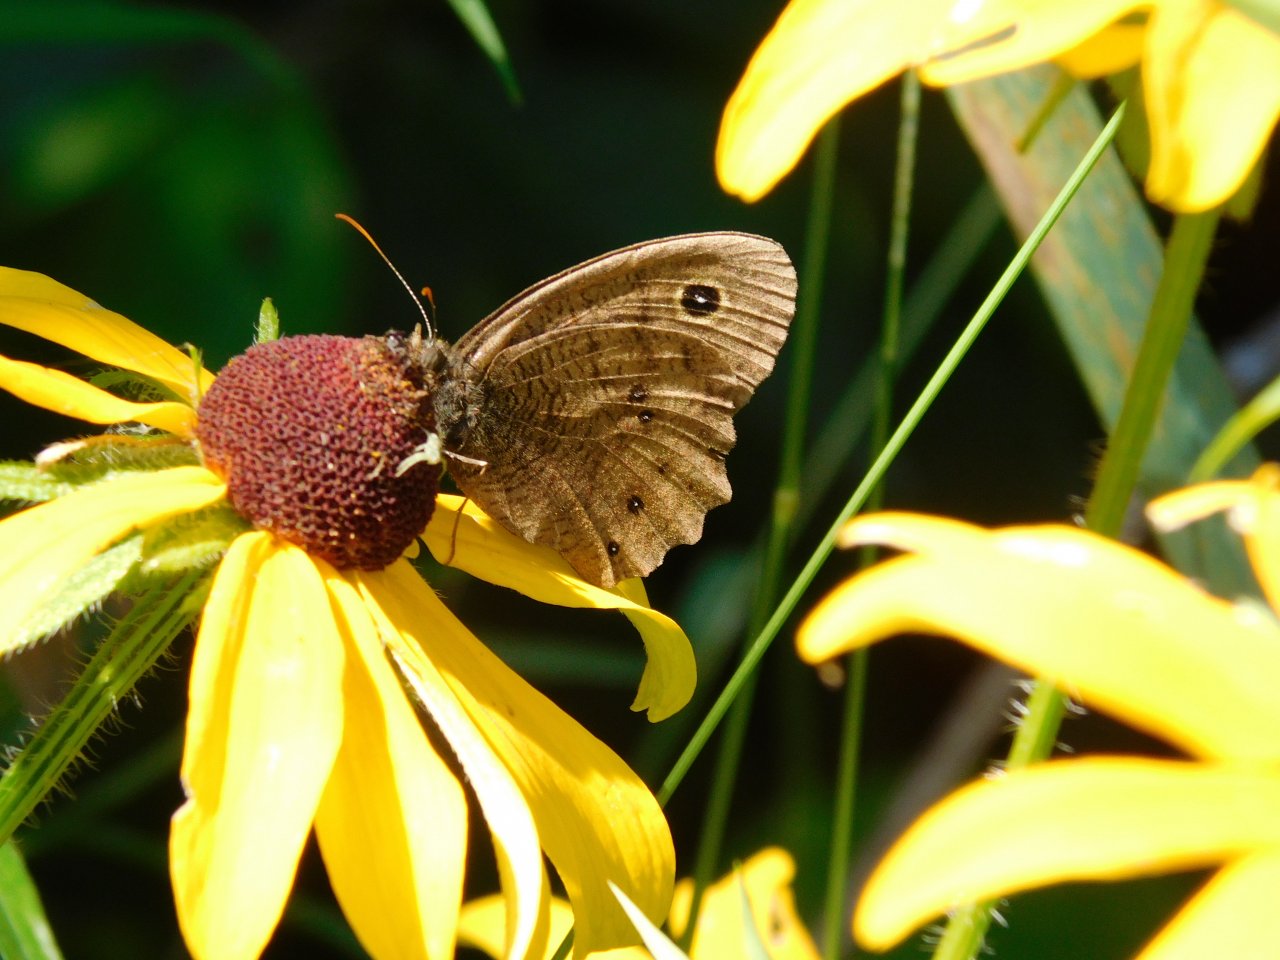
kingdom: Animalia
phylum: Arthropoda
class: Insecta
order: Lepidoptera
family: Nymphalidae
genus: Cercyonis
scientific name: Cercyonis pegala
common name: Common Wood-Nymph
